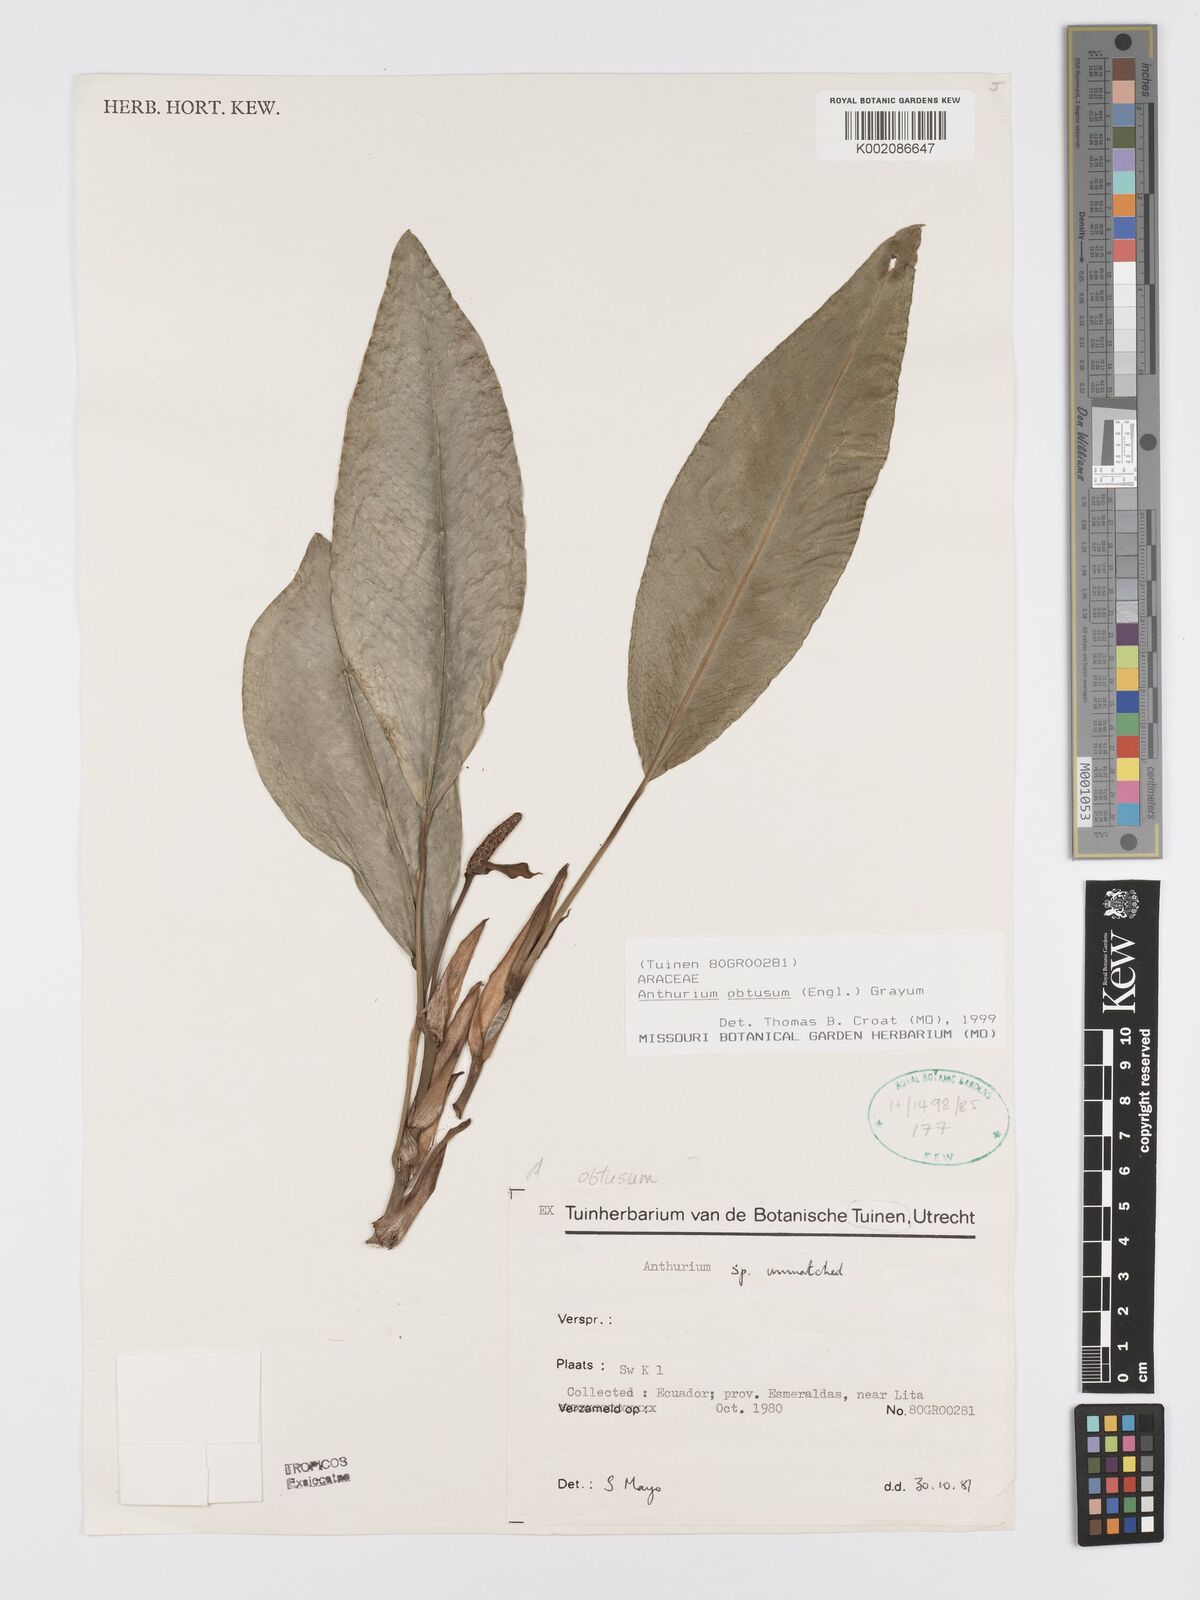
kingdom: Plantae
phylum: Tracheophyta
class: Liliopsida
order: Alismatales
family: Araceae
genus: Anthurium
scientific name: Anthurium obtusum
